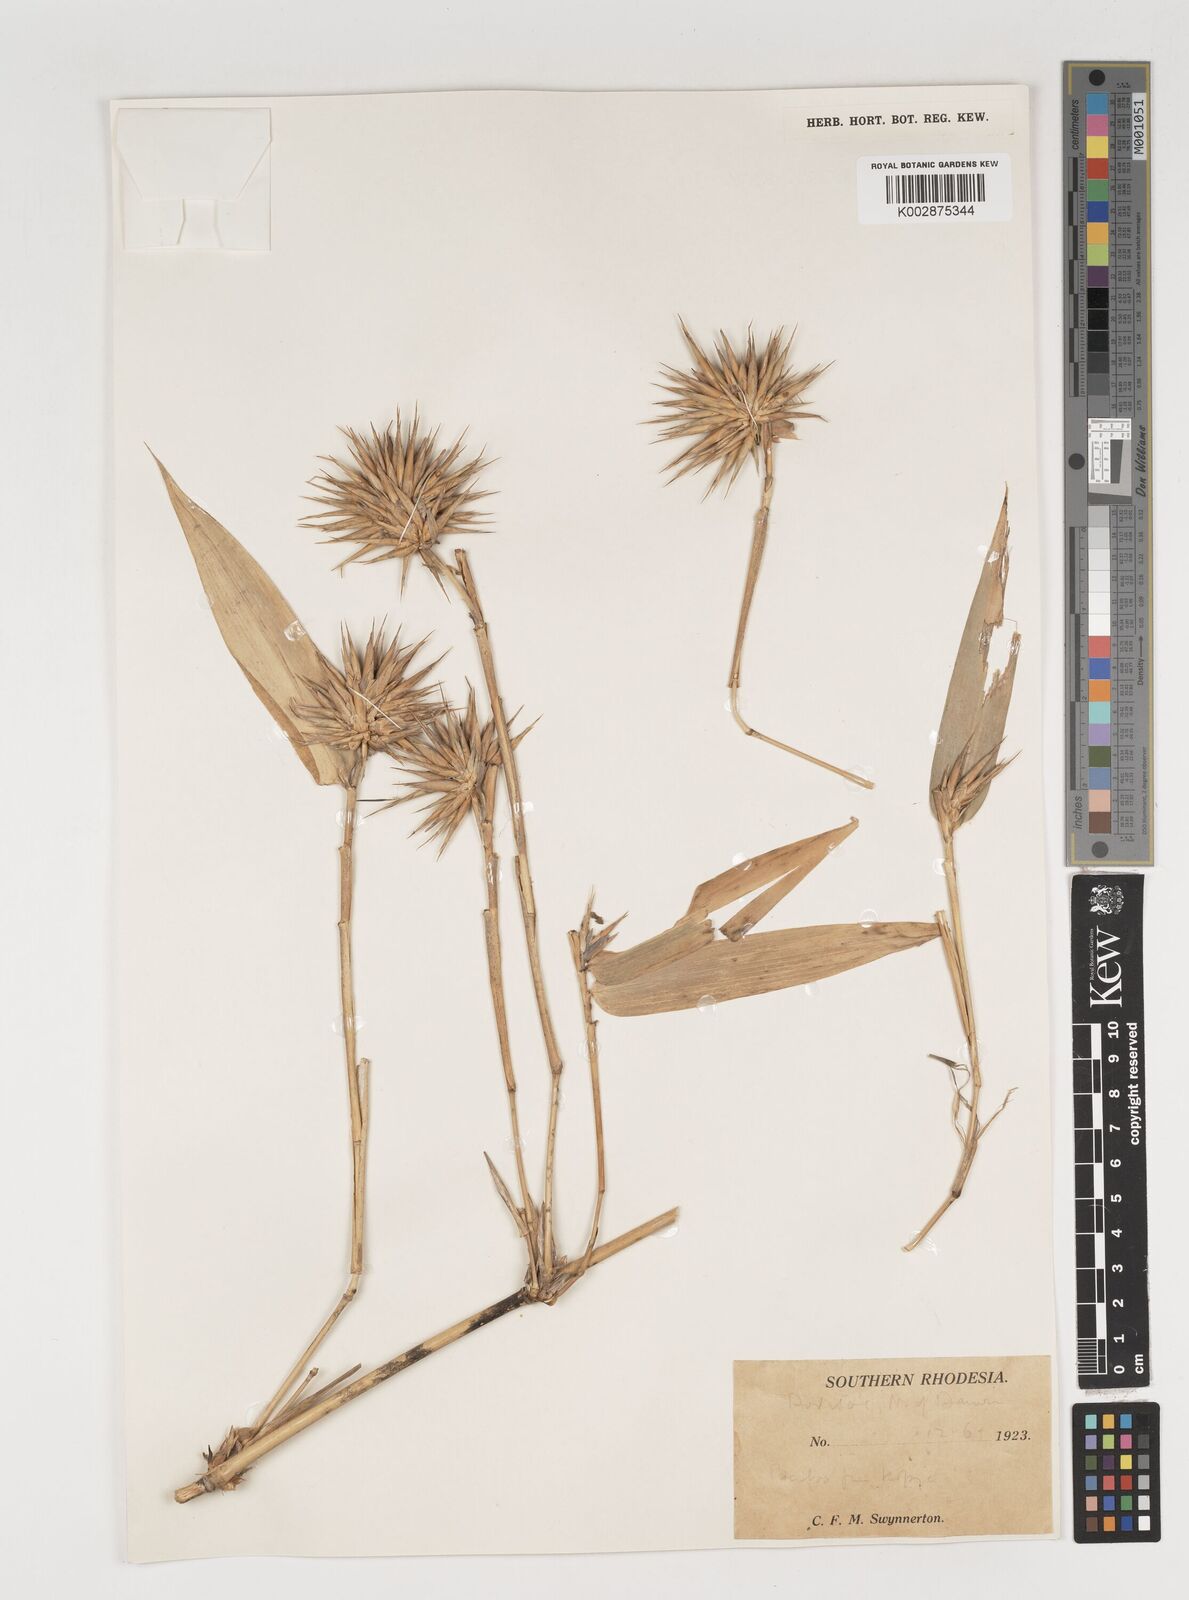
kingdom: Plantae
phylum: Tracheophyta
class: Liliopsida
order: Poales
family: Poaceae
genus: Oxytenanthera
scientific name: Oxytenanthera abyssinica
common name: Wine bamboo
